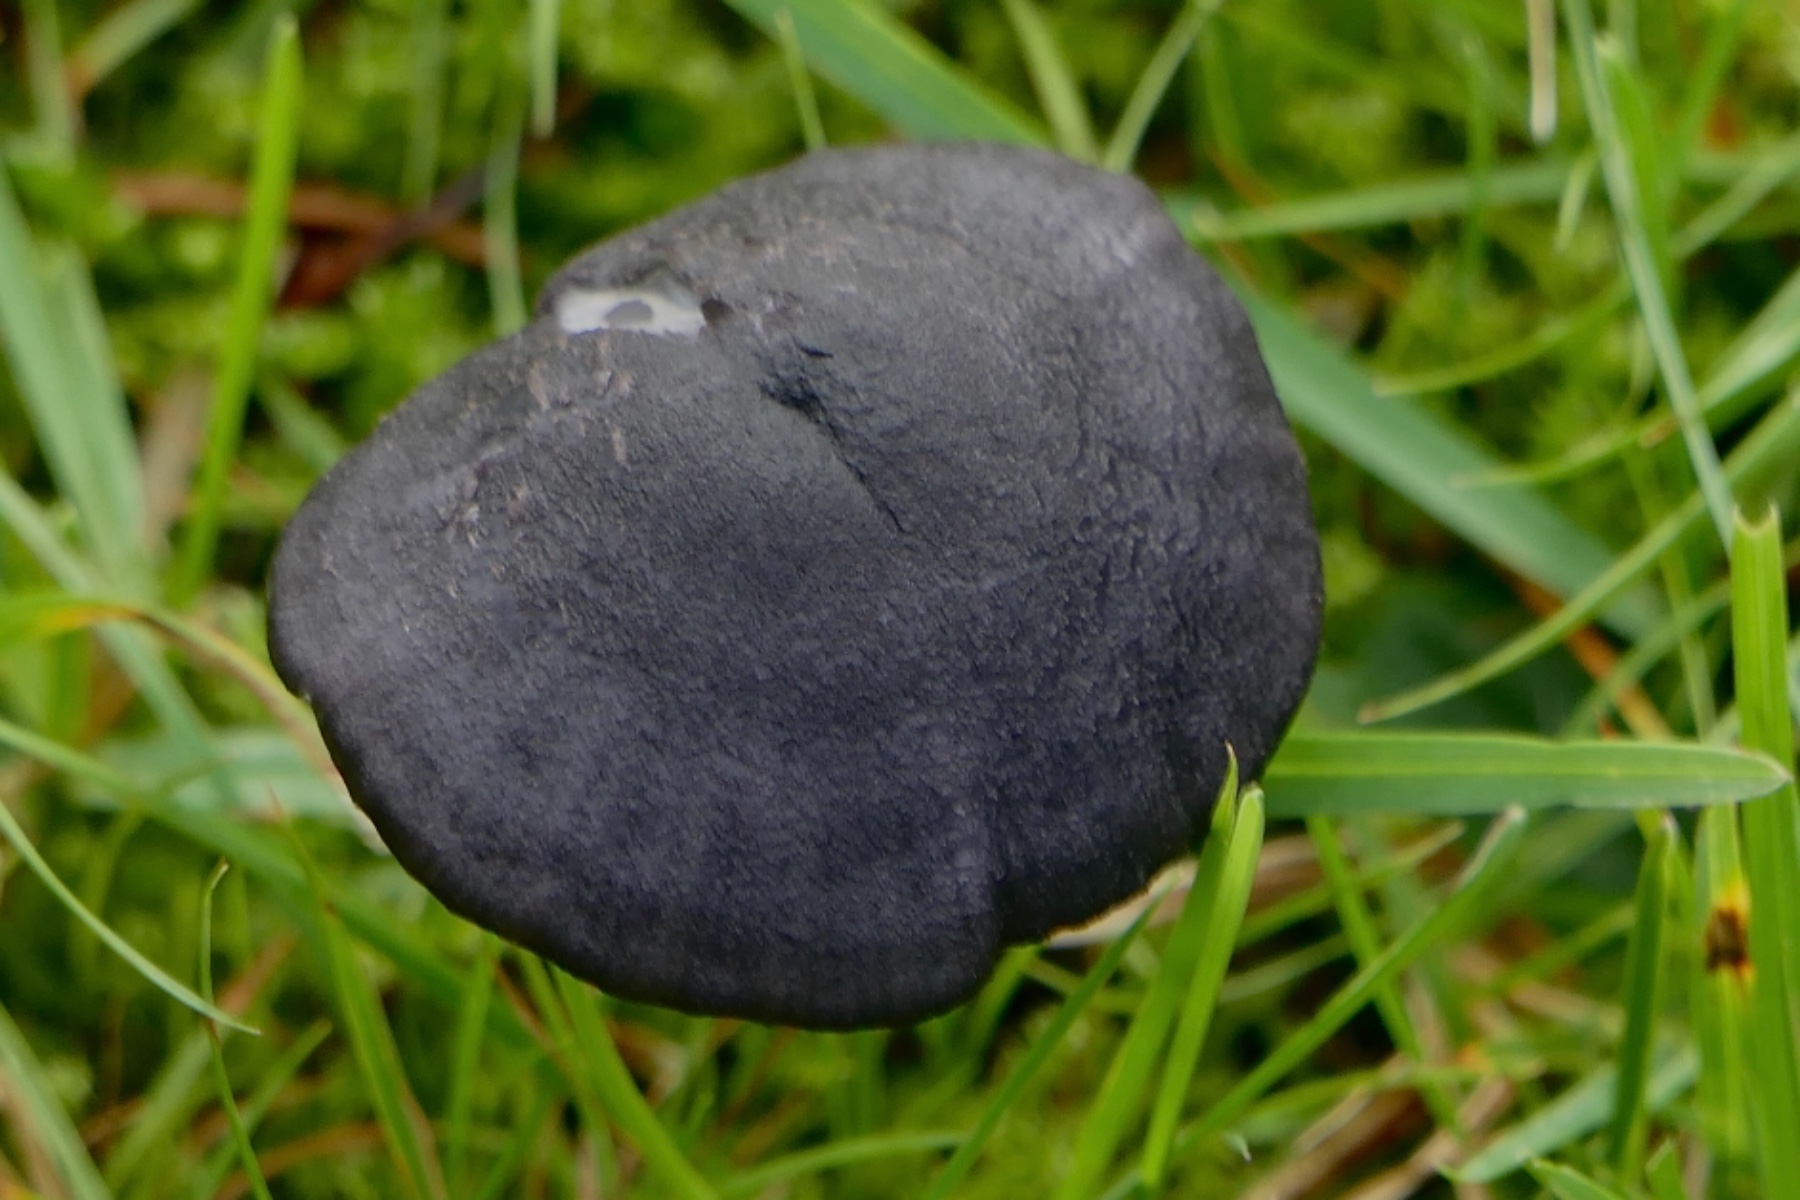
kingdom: Fungi
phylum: Basidiomycota
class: Agaricomycetes
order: Agaricales
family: Entolomataceae
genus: Entoloma
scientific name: Entoloma chalybeum
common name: blåbladet rødblad
